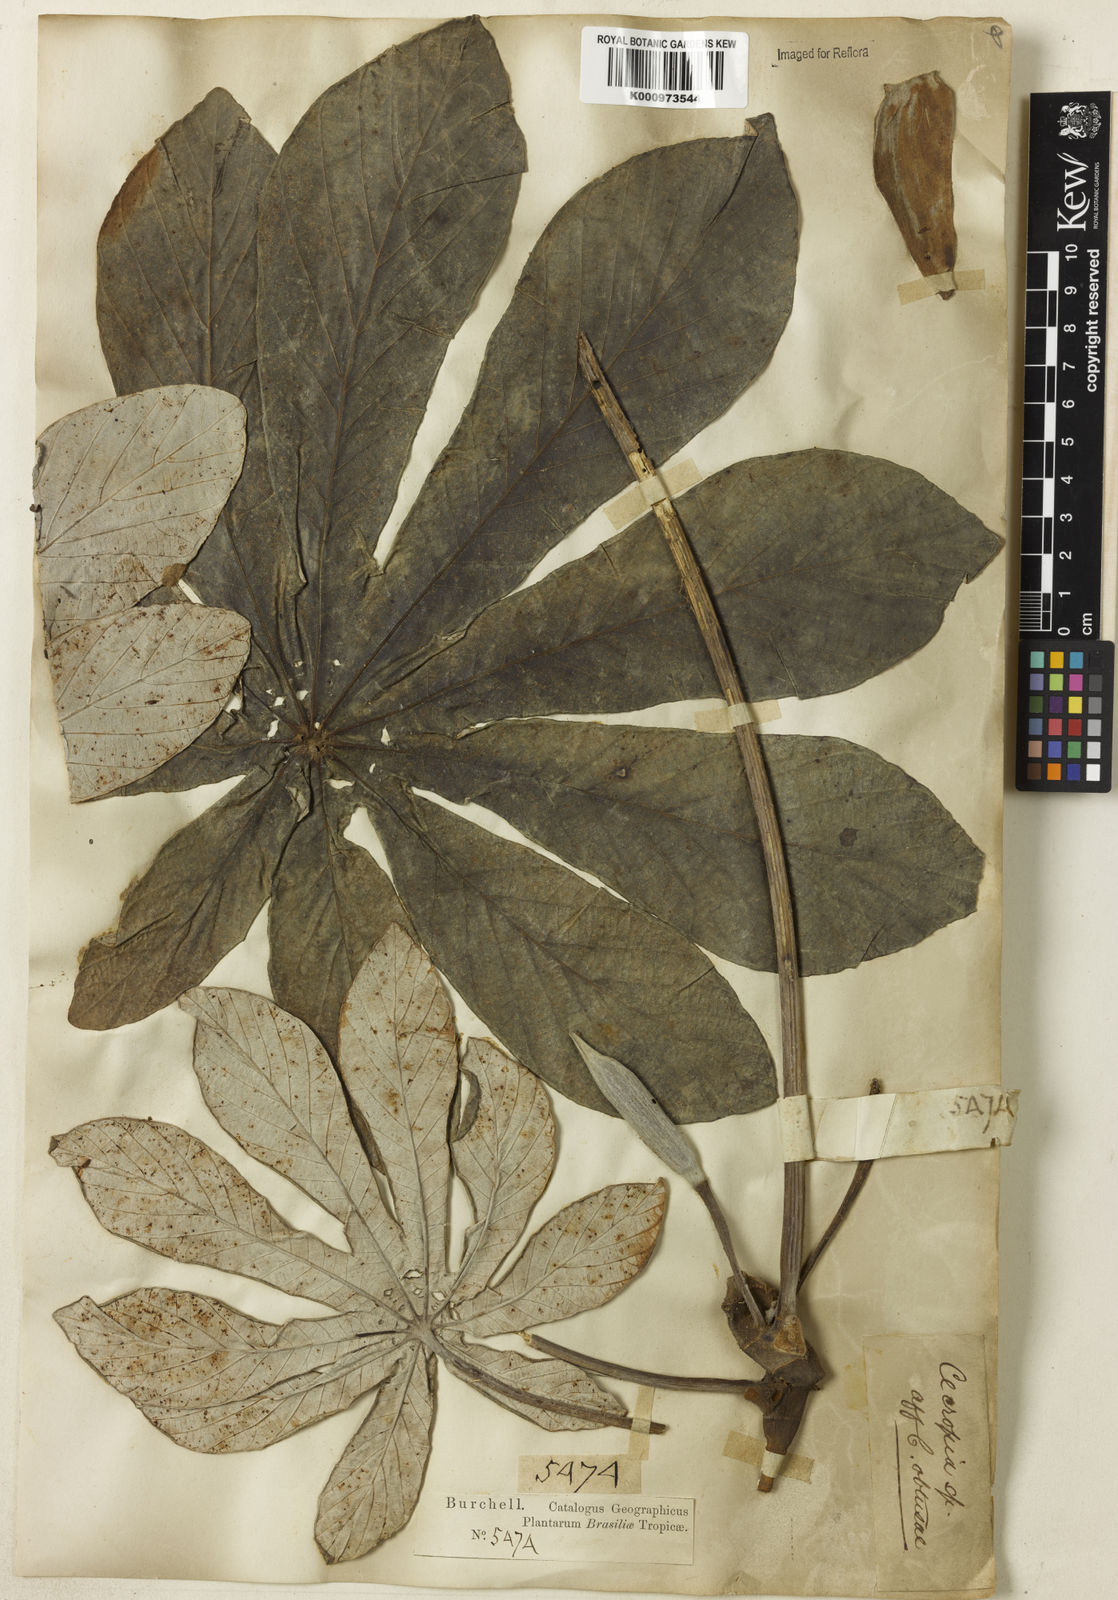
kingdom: Plantae
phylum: Tracheophyta
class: Magnoliopsida
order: Rosales
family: Urticaceae
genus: Cecropia
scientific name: Cecropia
